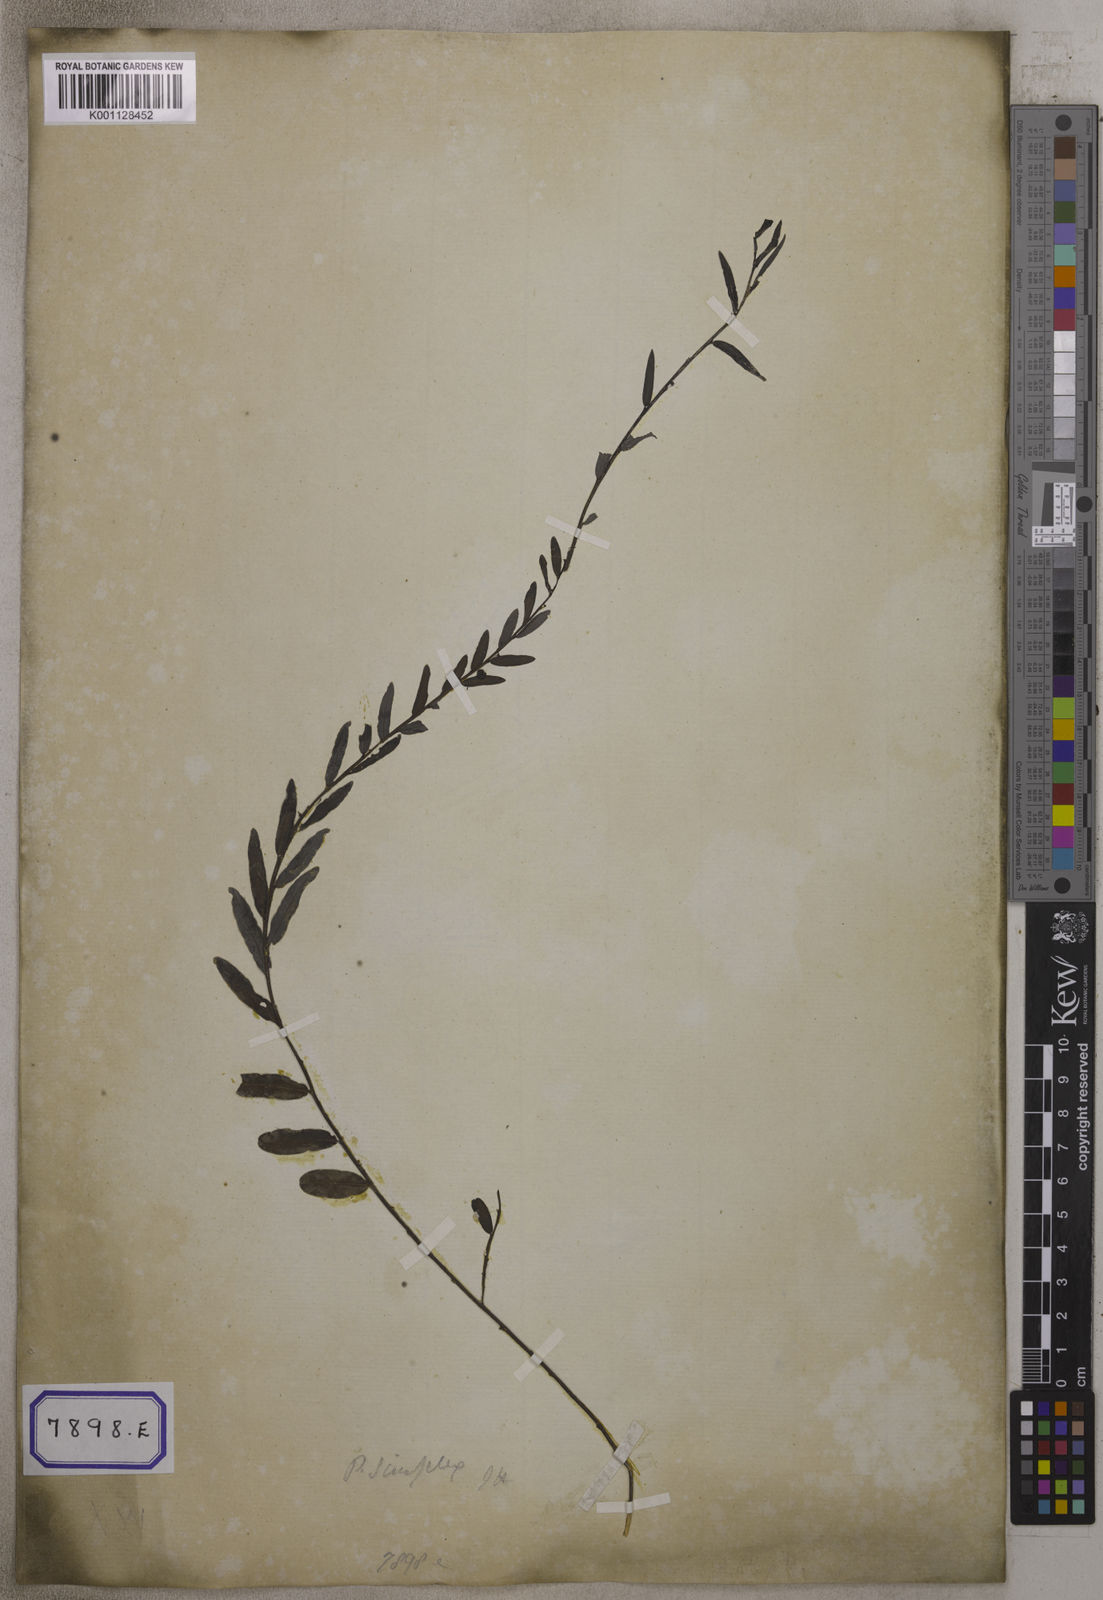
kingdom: Plantae
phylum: Tracheophyta
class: Magnoliopsida
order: Malpighiales
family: Euphorbiaceae
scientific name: Euphorbiaceae
